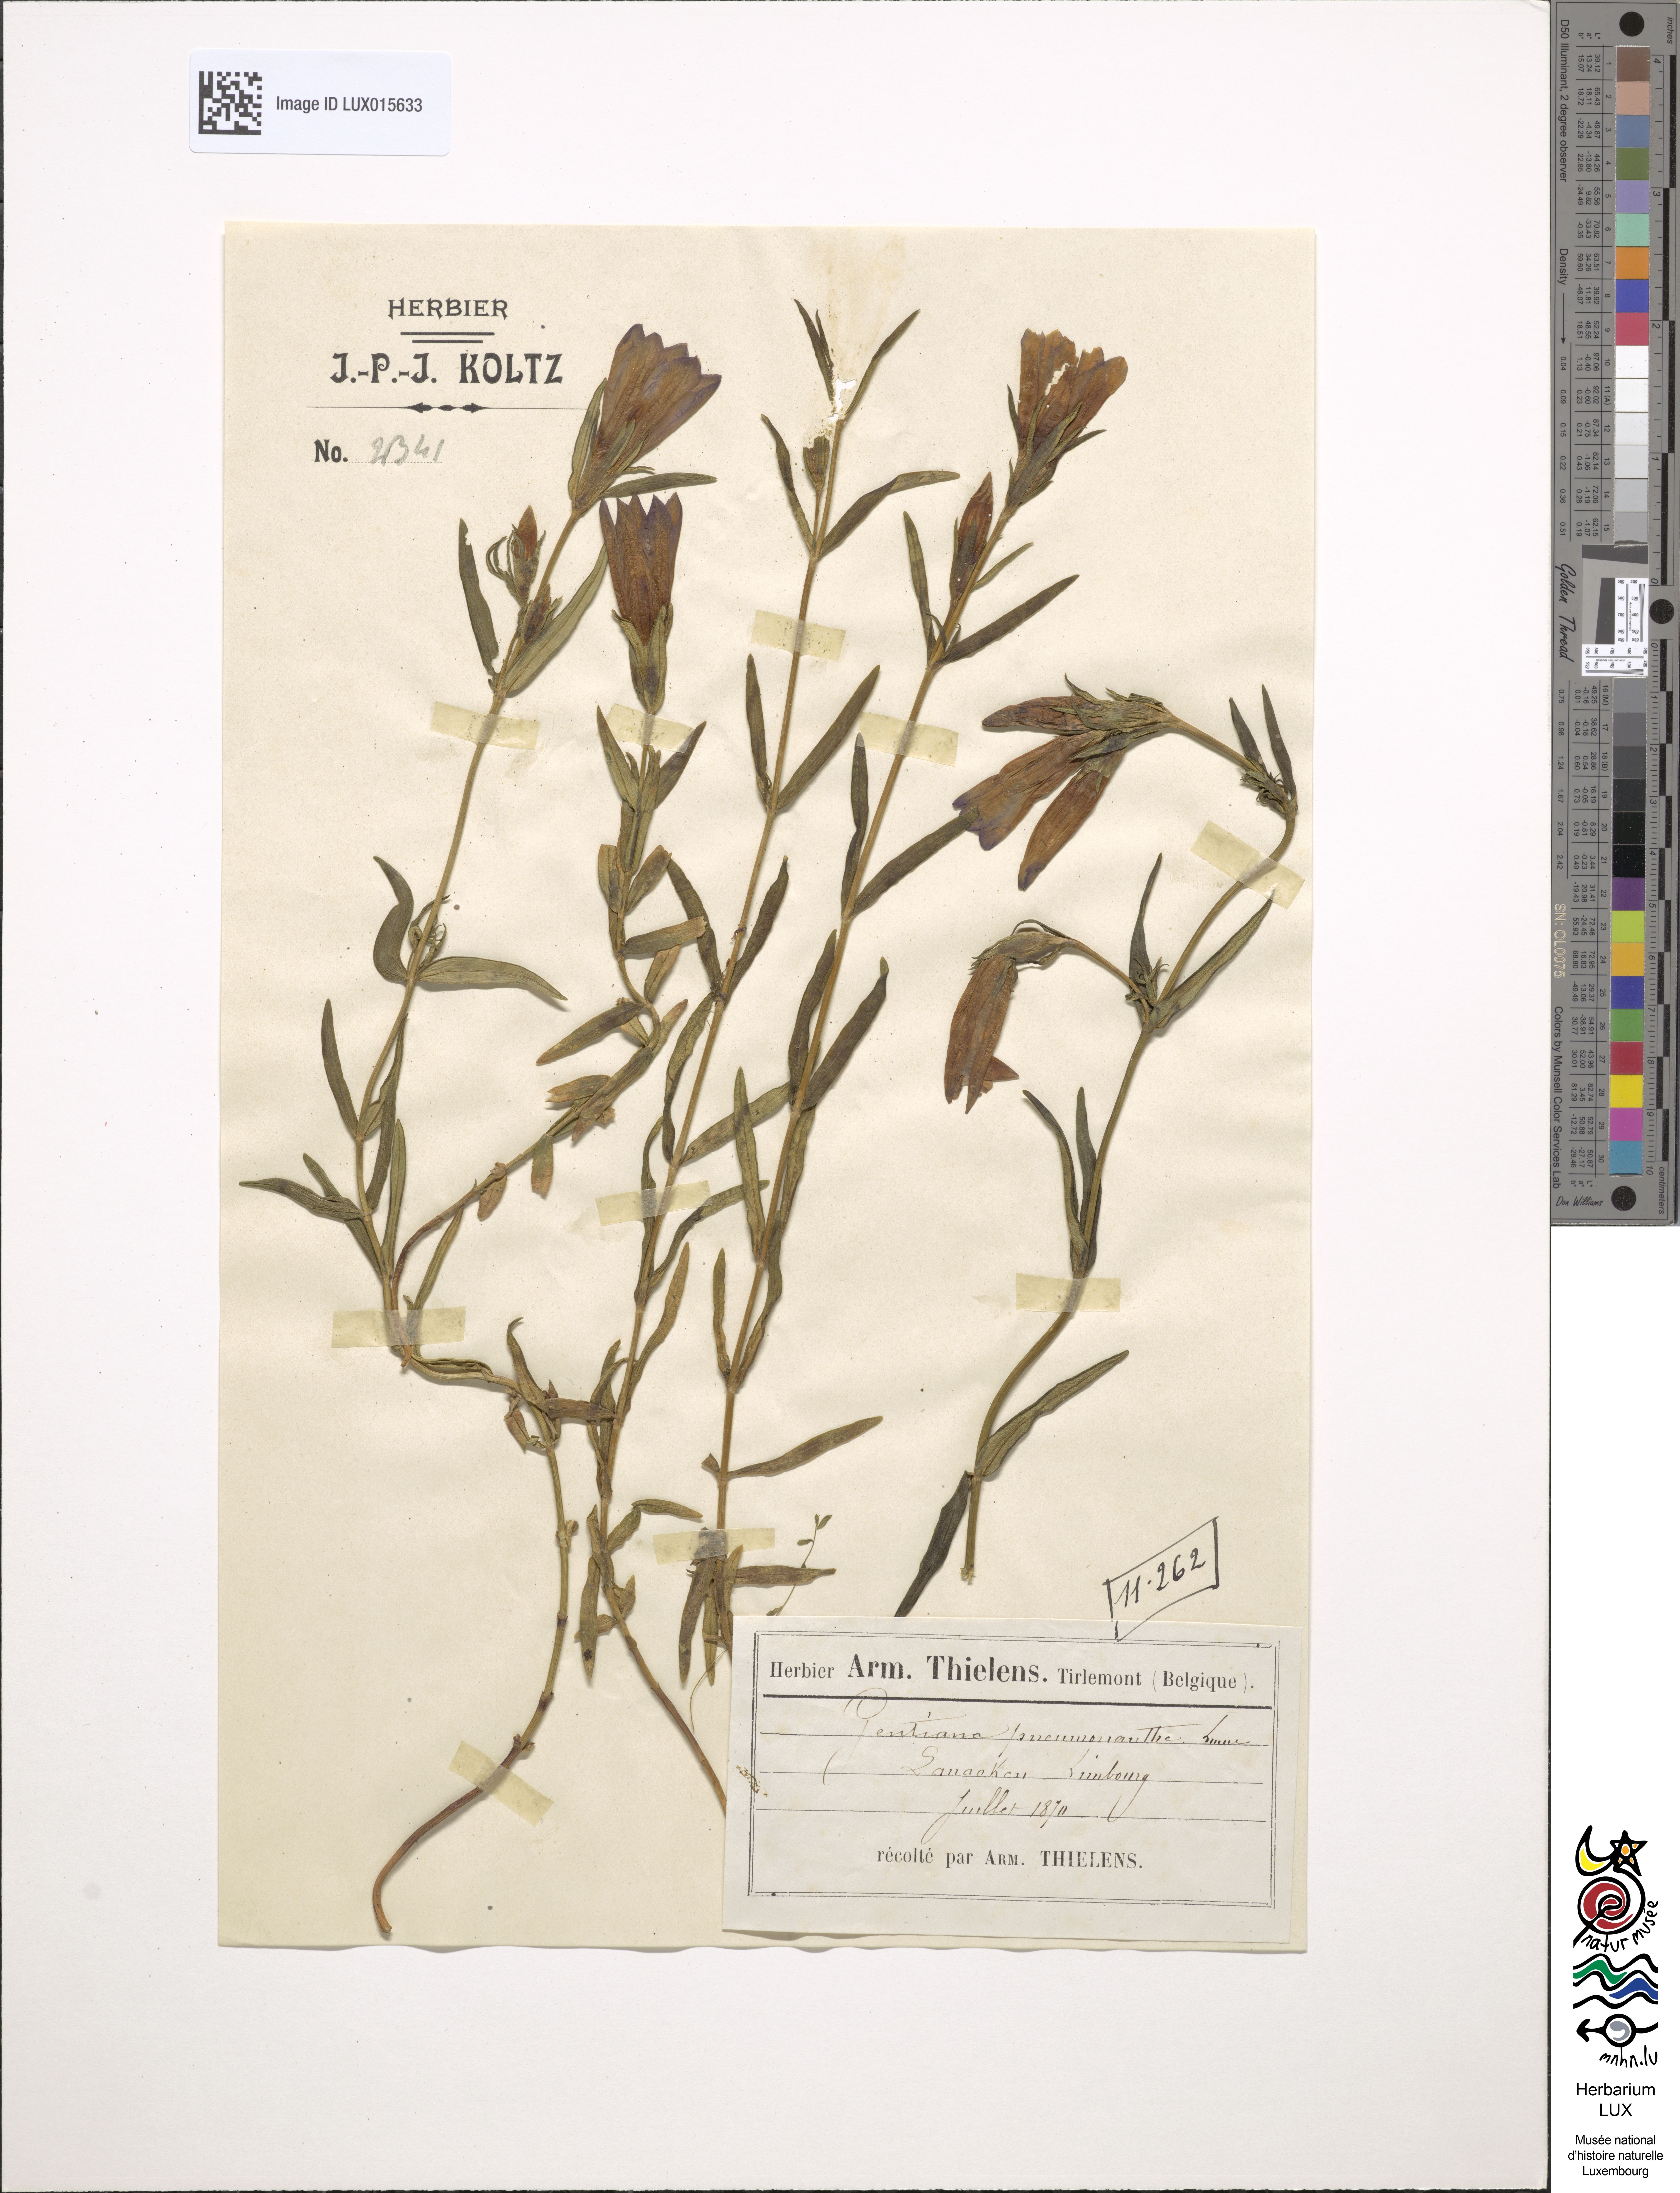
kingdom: Plantae
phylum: Tracheophyta
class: Magnoliopsida
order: Gentianales
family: Gentianaceae
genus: Gentiana
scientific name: Gentiana pneumonanthe
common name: Marsh gentian
